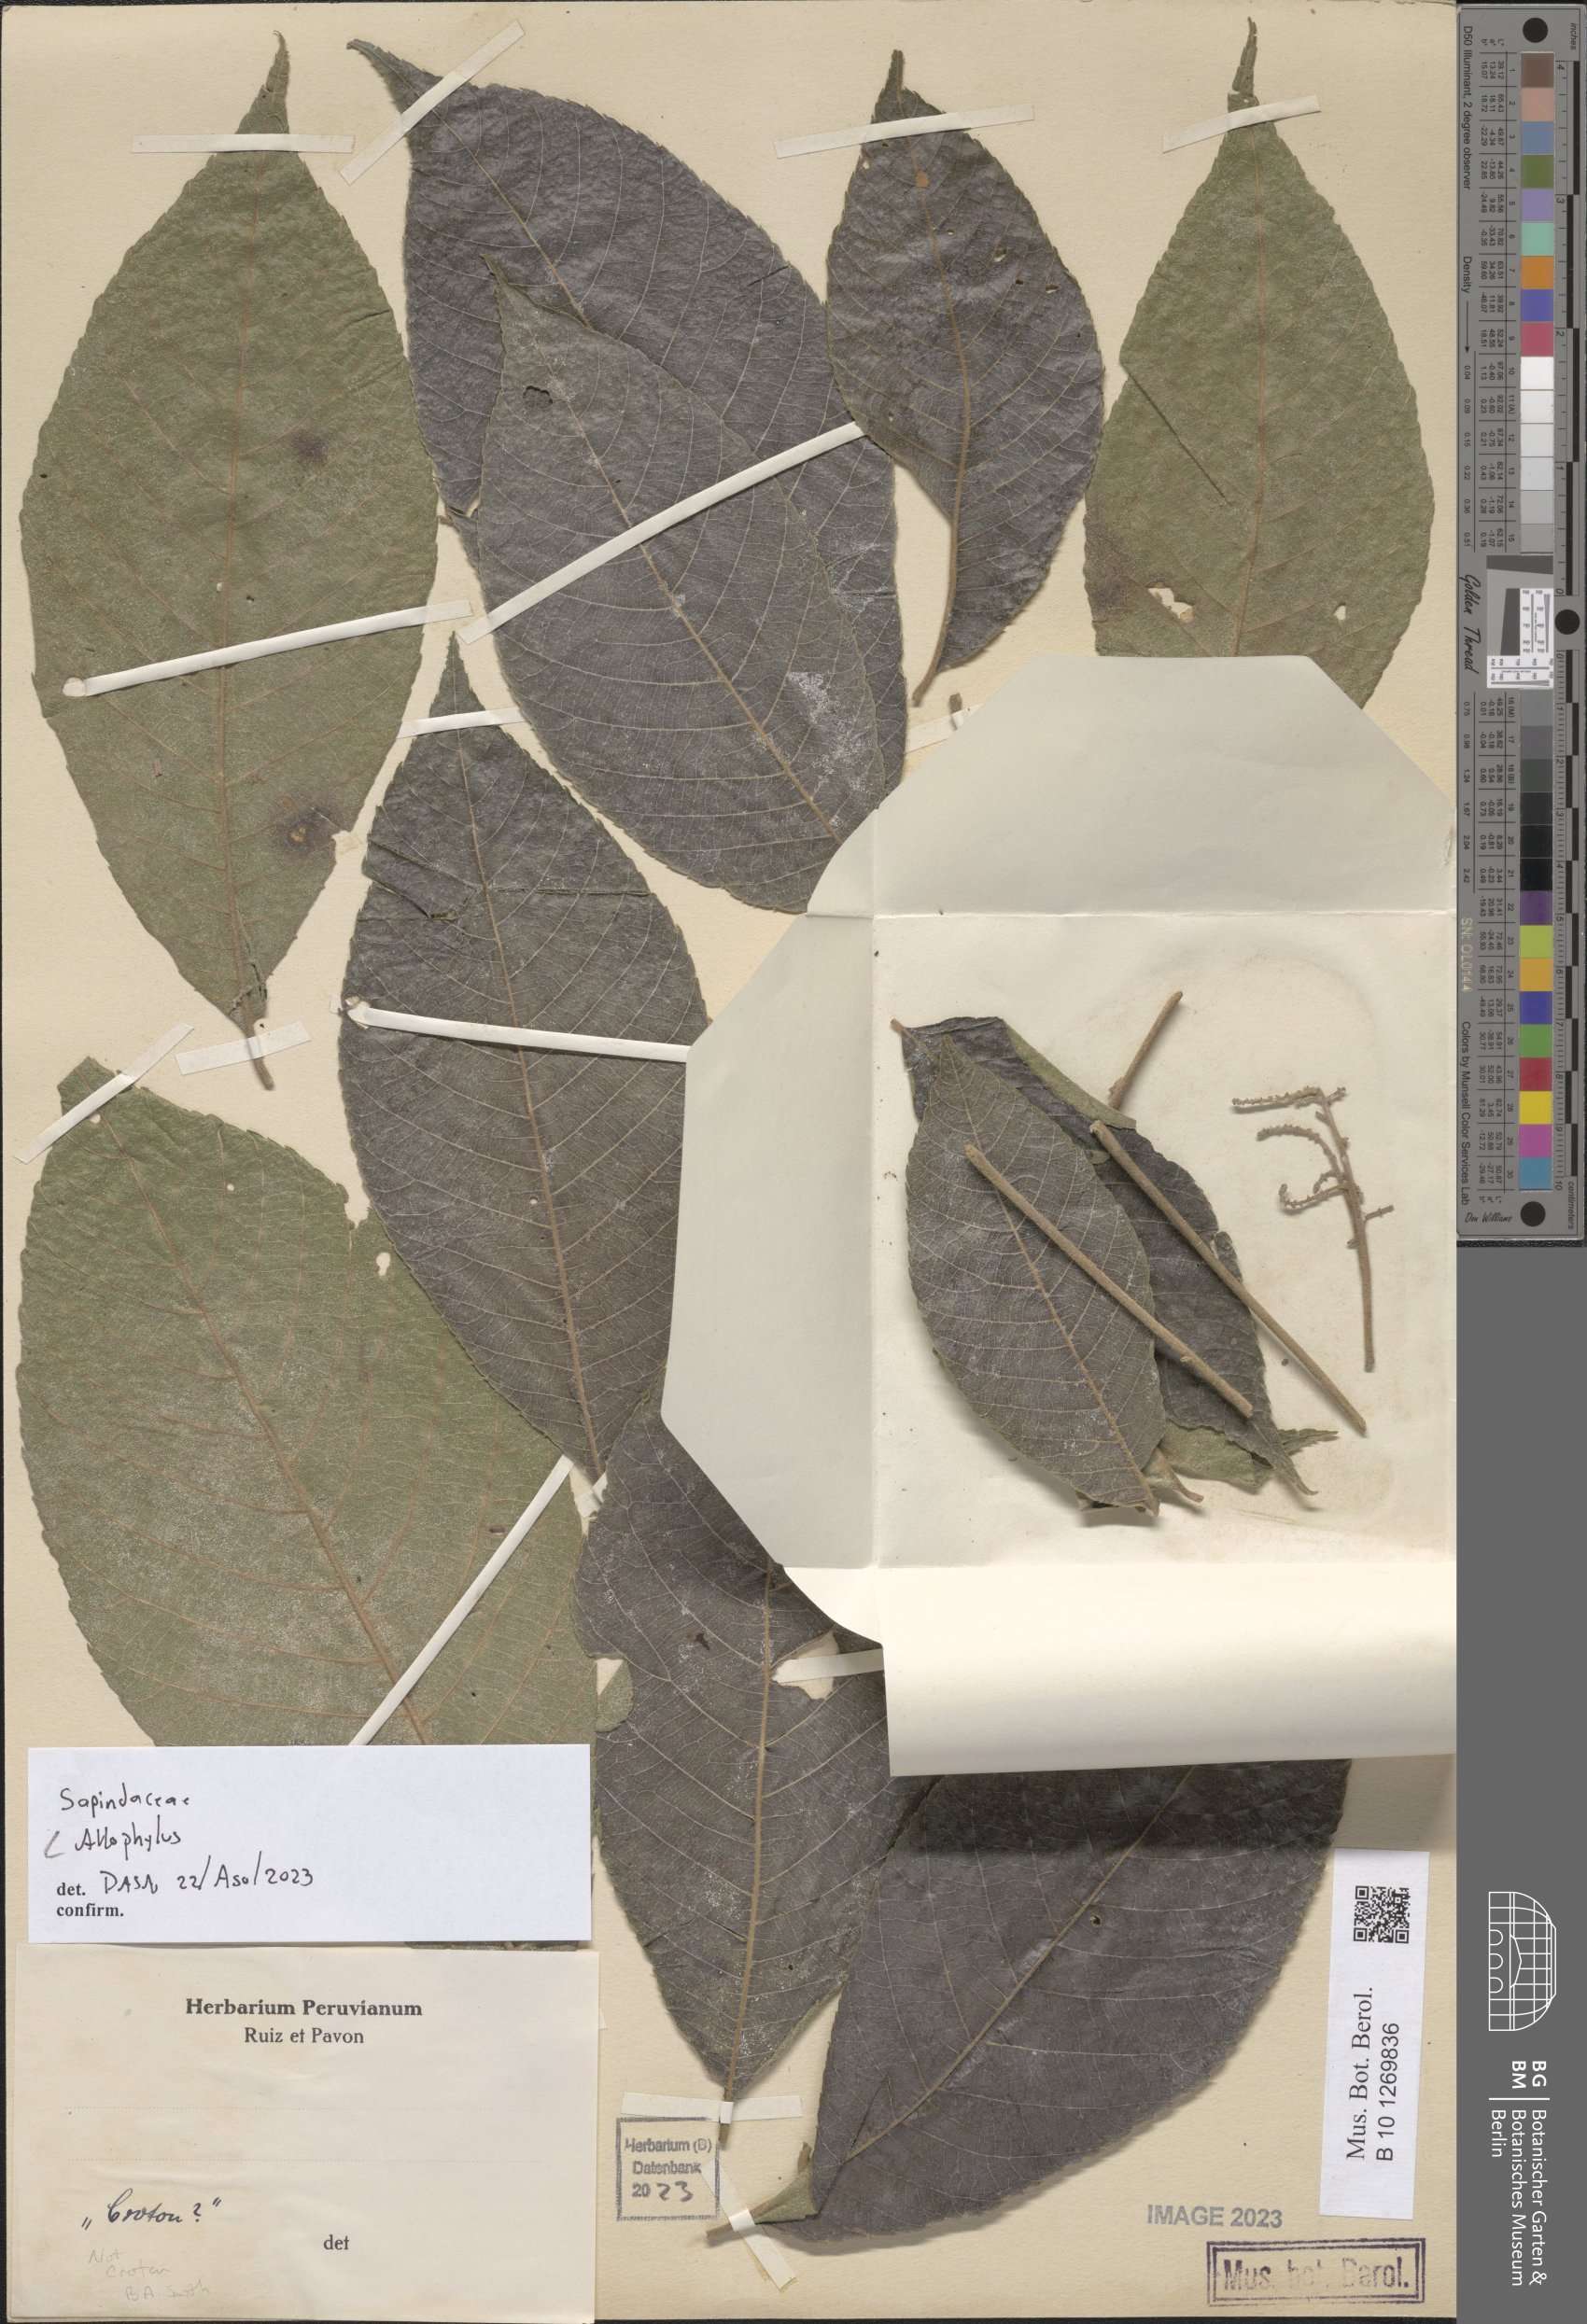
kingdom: Plantae
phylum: Tracheophyta
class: Magnoliopsida
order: Sapindales
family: Sapindaceae
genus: Allophyllus
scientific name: Allophyllus
